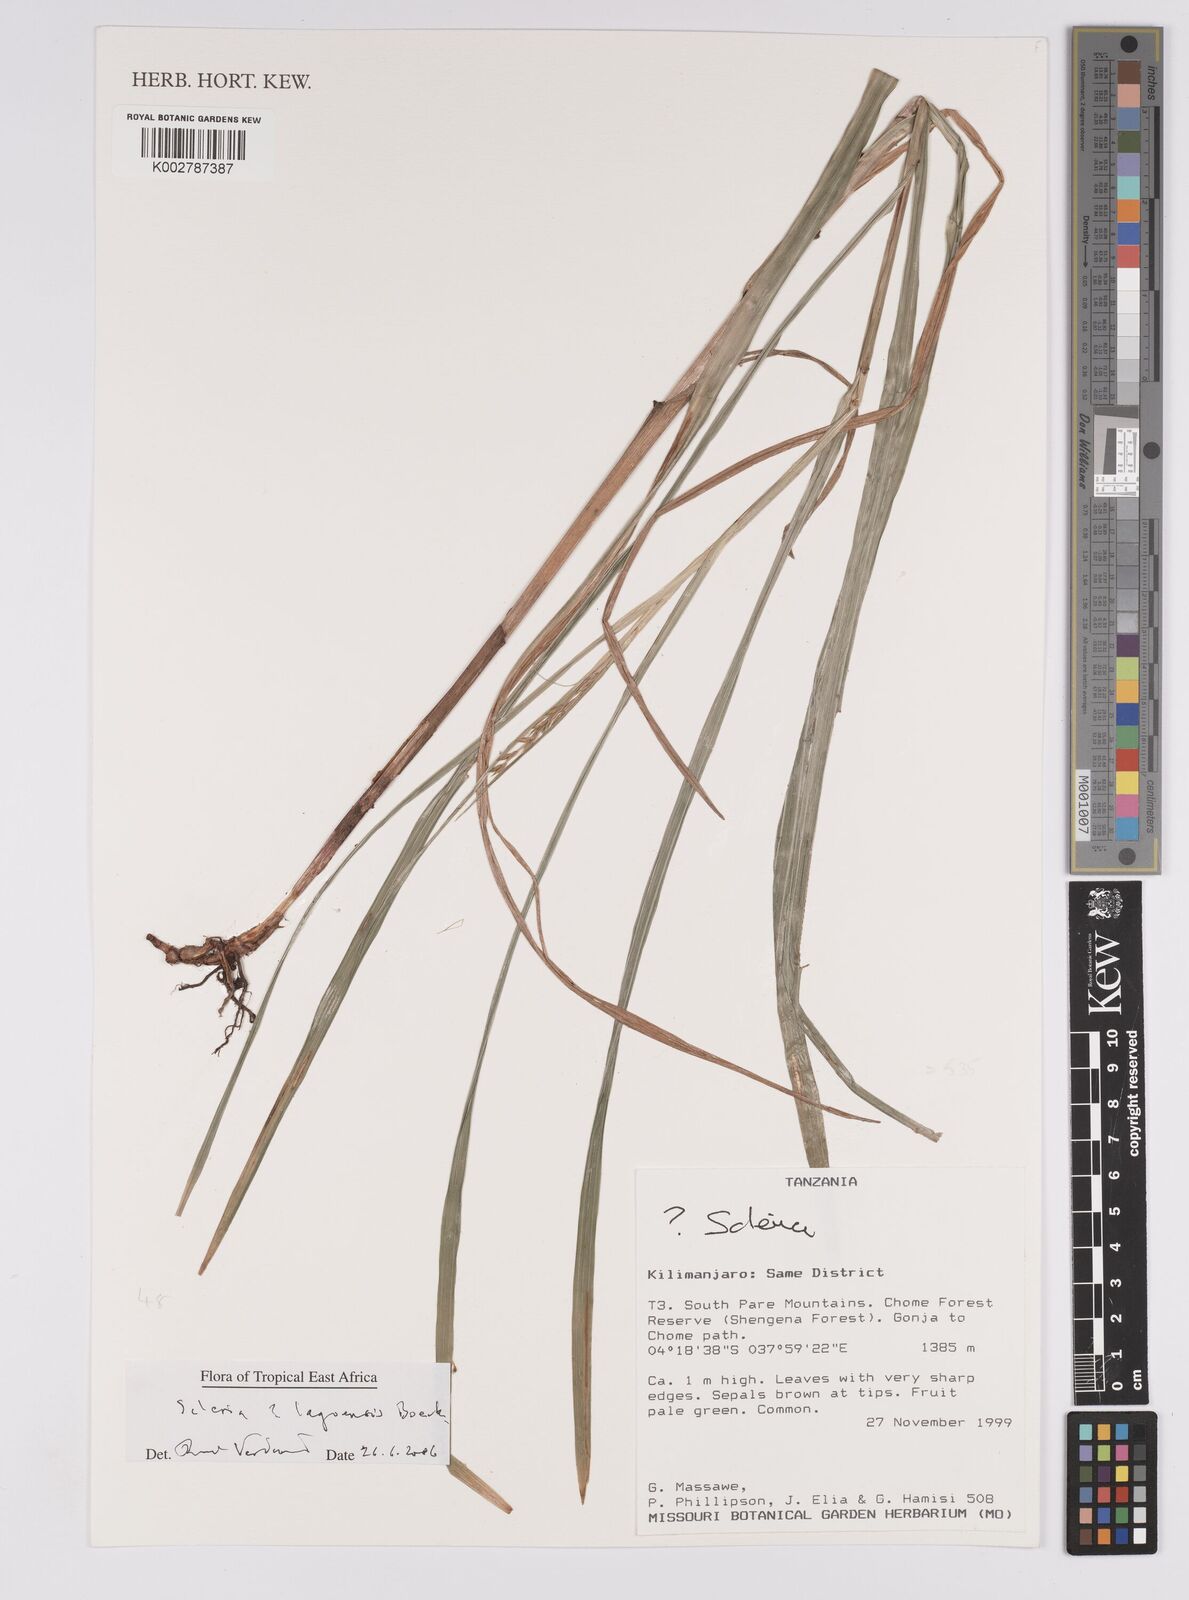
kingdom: Plantae
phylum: Tracheophyta
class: Liliopsida
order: Poales
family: Cyperaceae
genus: Scleria
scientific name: Scleria lagoensis
